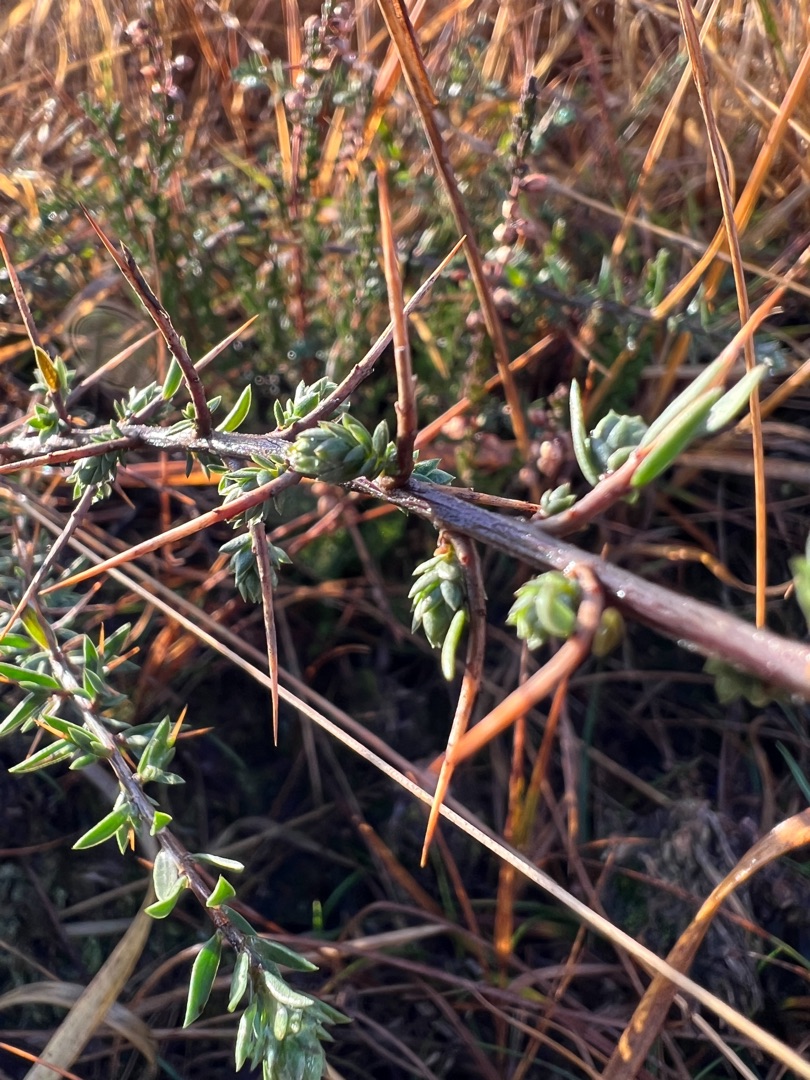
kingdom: Plantae
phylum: Tracheophyta
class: Magnoliopsida
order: Fabales
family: Fabaceae
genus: Genista
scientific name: Genista anglica
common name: Engelsk visse
